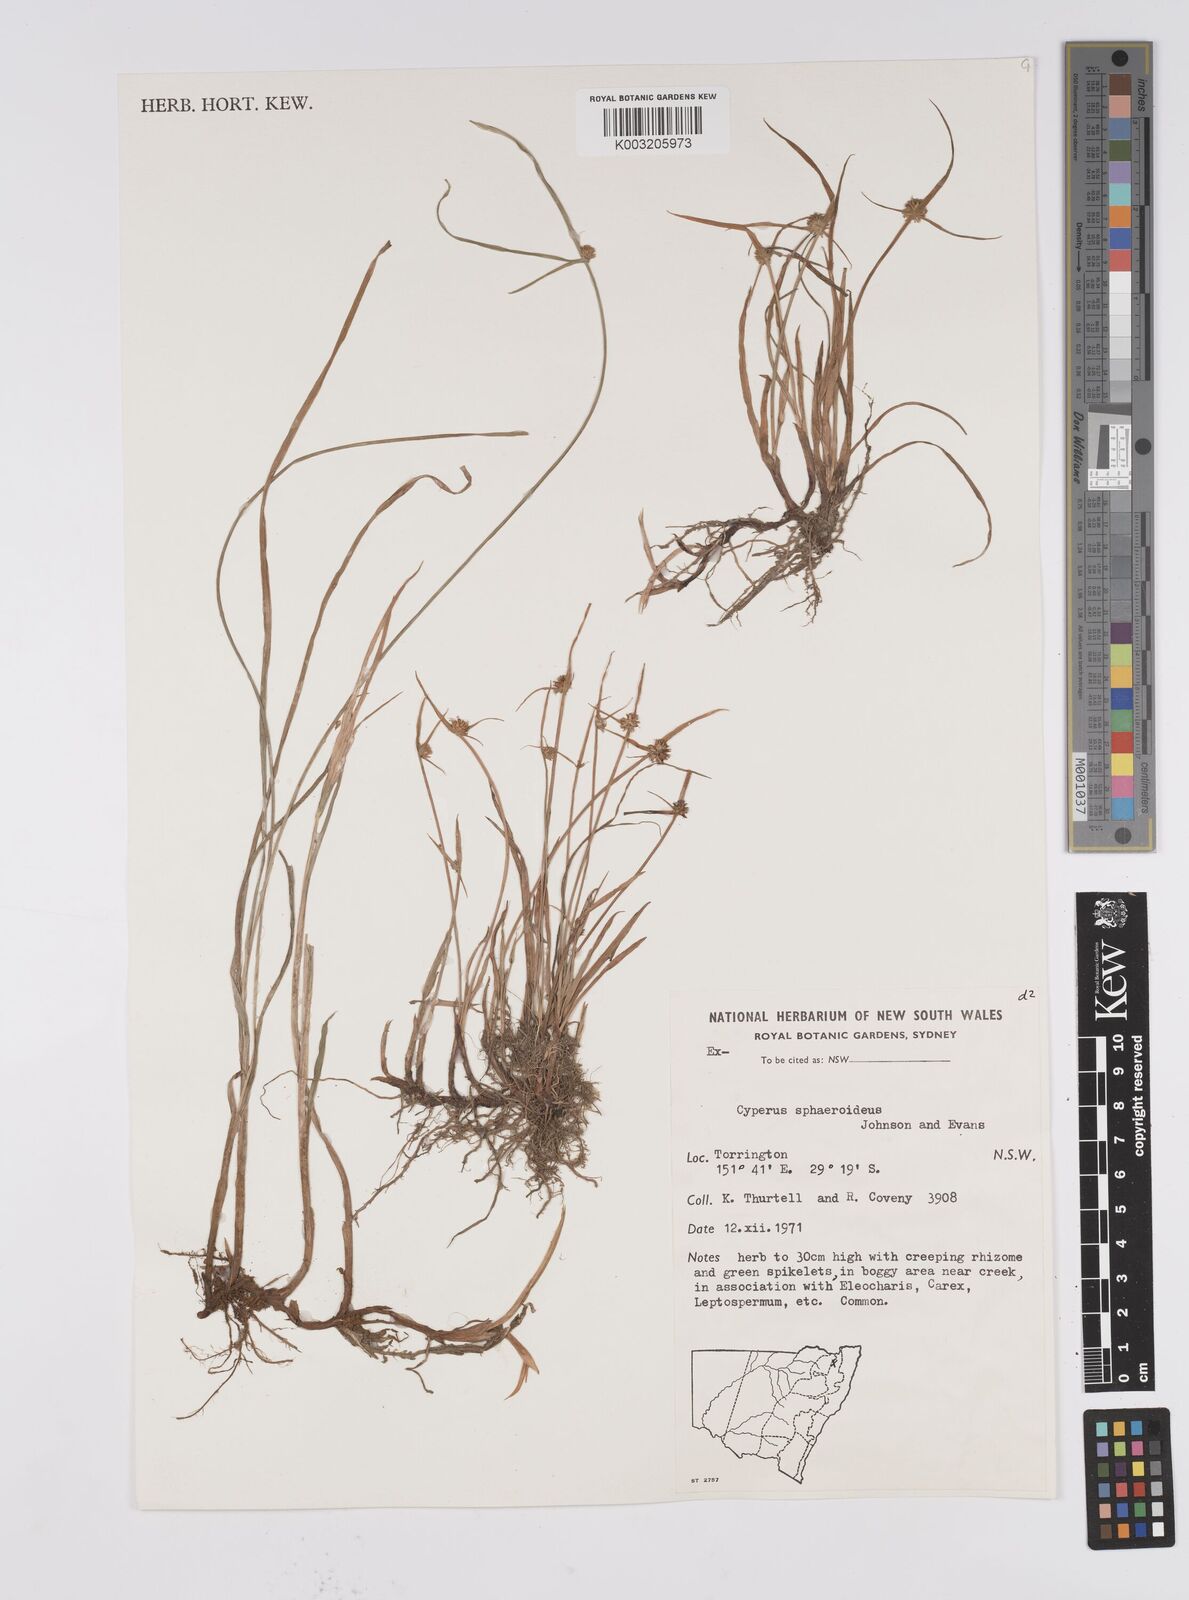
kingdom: Plantae
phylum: Tracheophyta
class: Liliopsida
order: Poales
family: Cyperaceae
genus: Cyperus
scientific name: Cyperus longus
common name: Galingale
